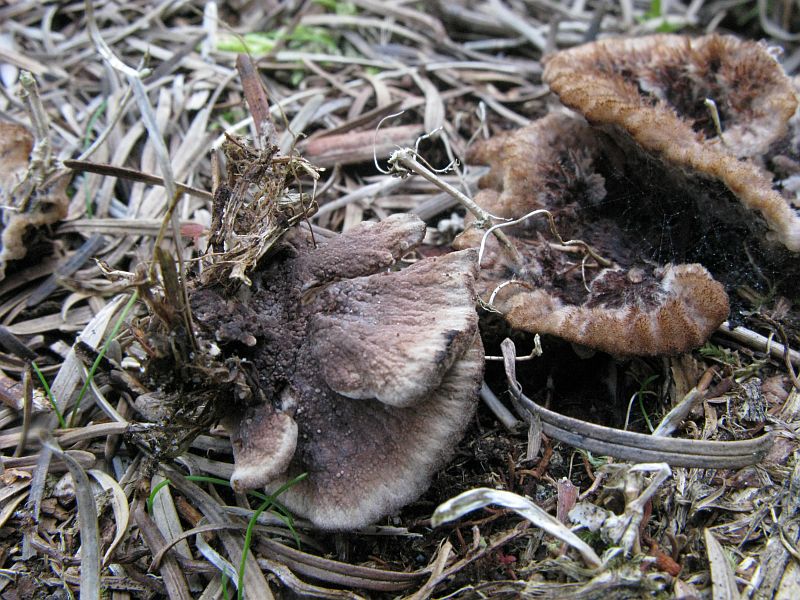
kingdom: Fungi
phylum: Basidiomycota
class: Agaricomycetes
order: Thelephorales
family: Thelephoraceae
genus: Thelephora
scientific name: Thelephora terrestris
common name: fliget frynsesvamp
